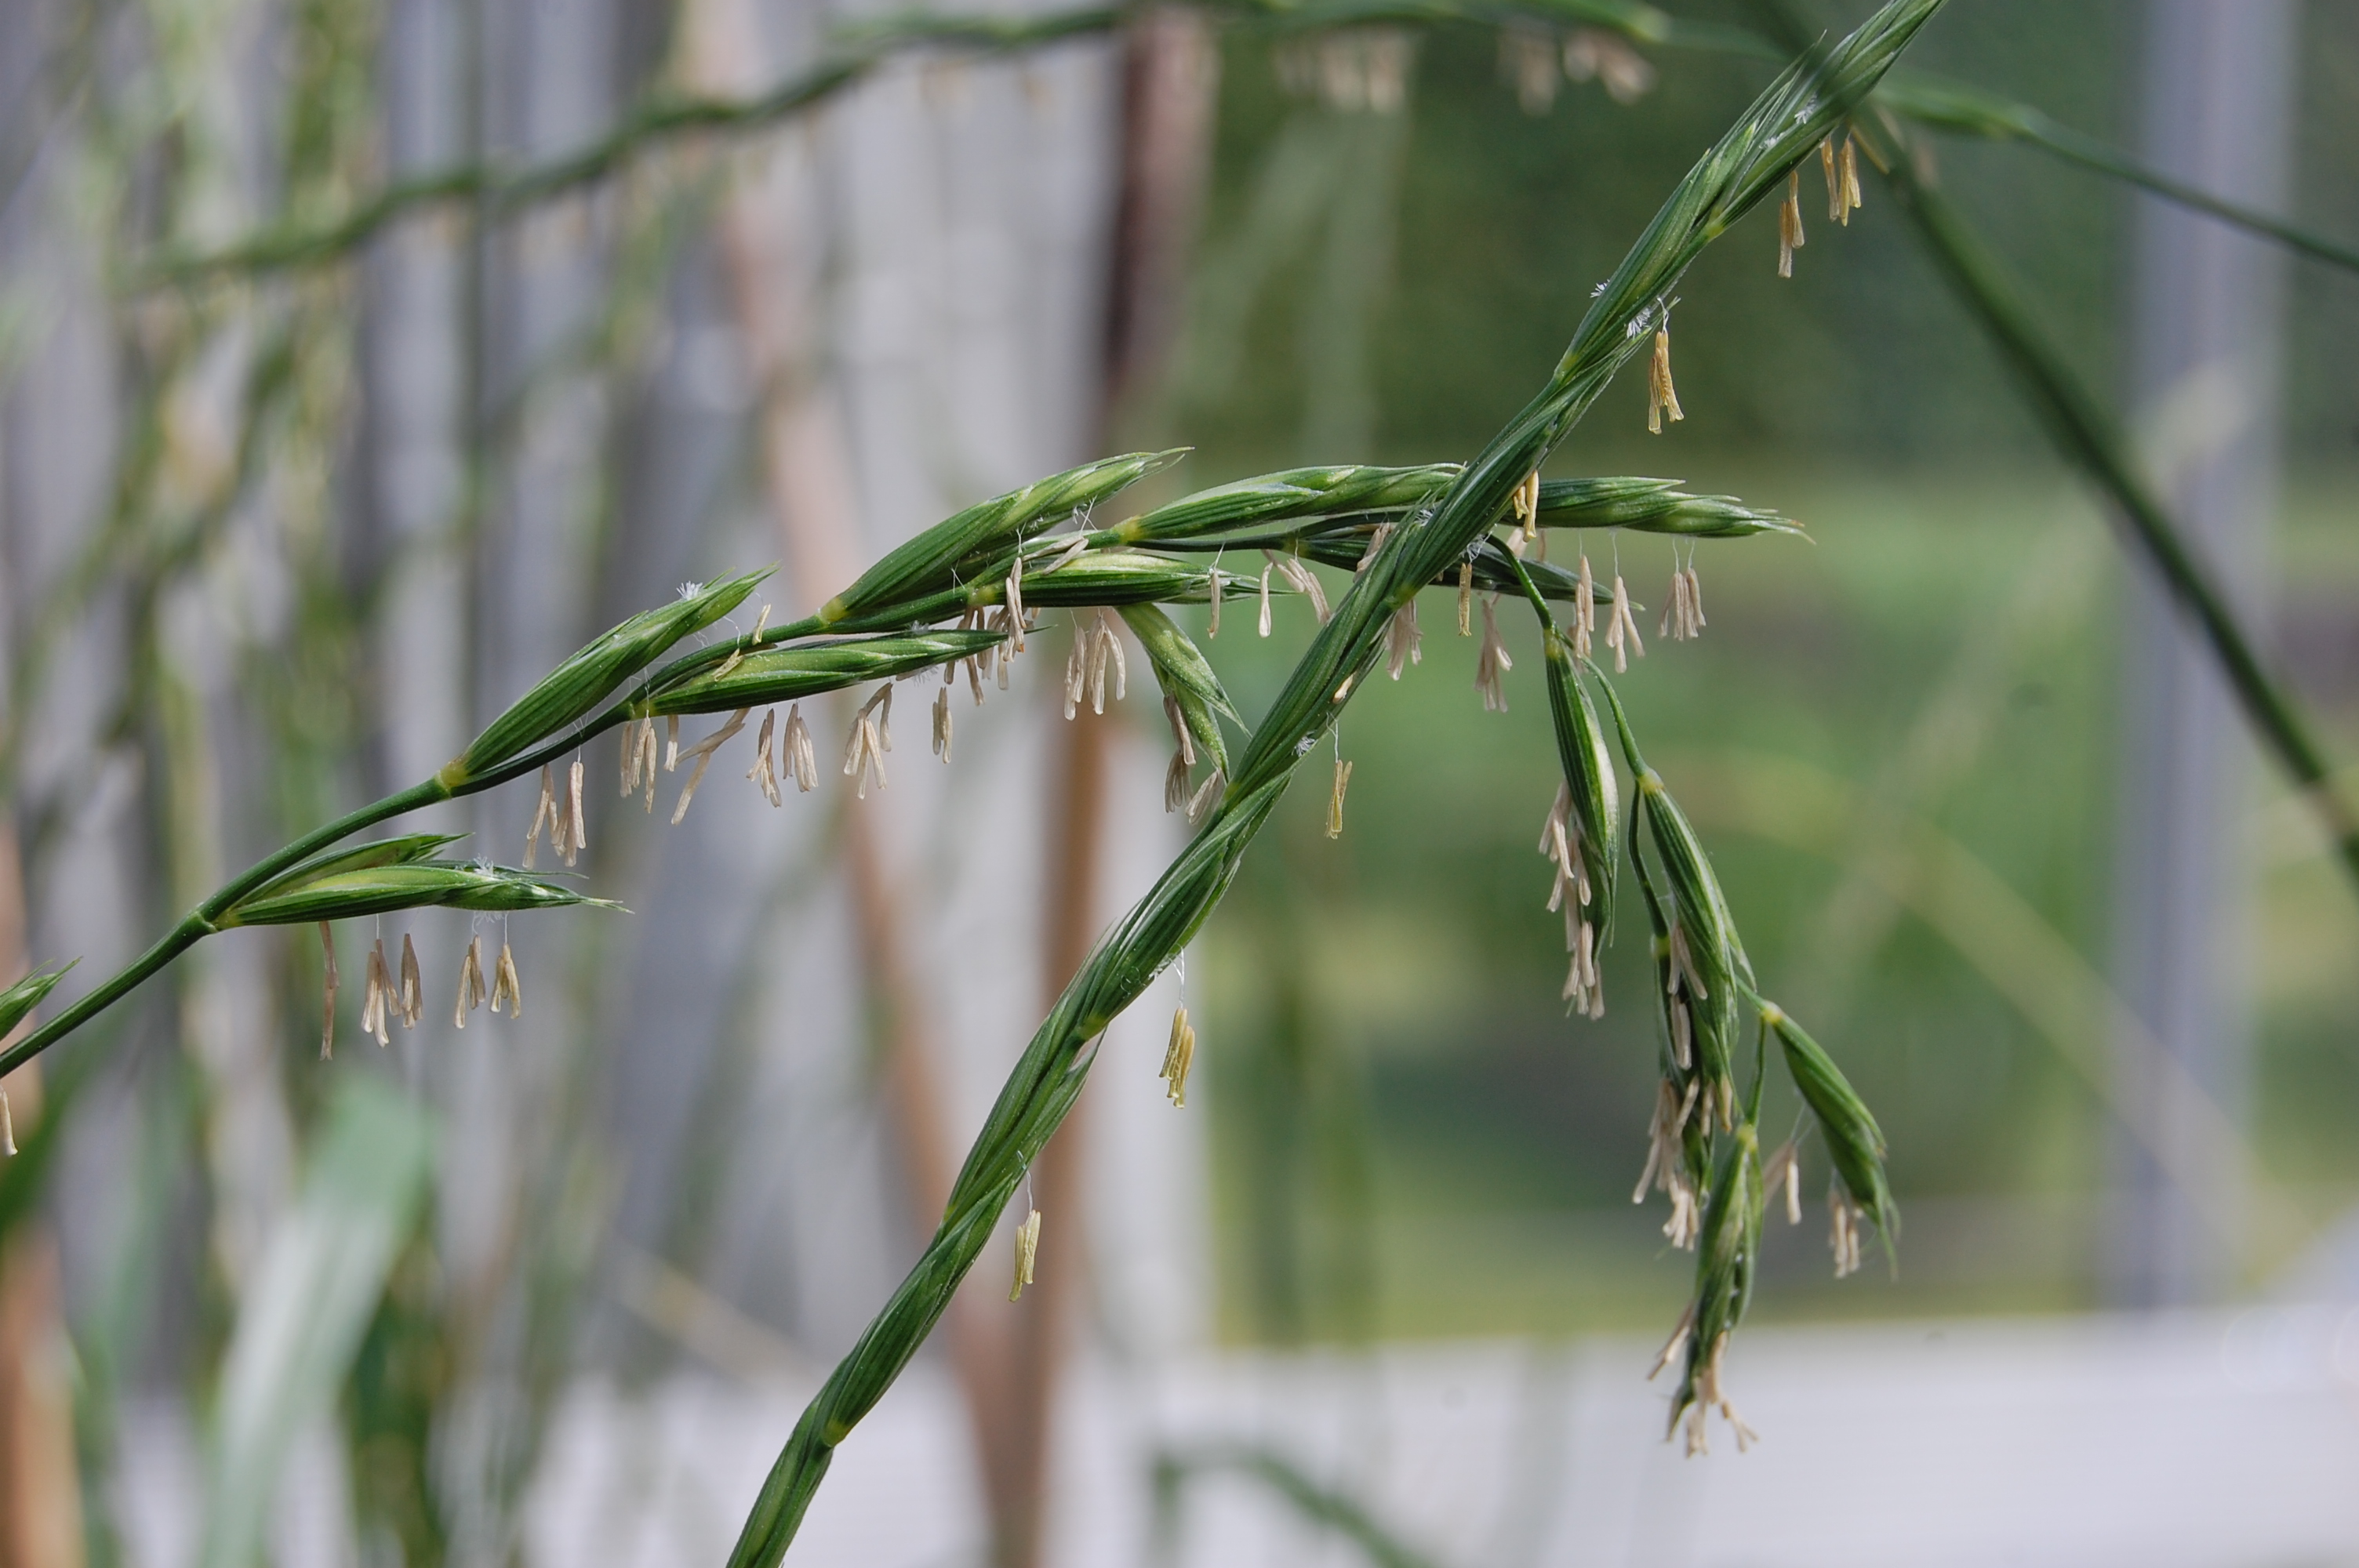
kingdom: Plantae
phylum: Tracheophyta
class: Liliopsida
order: Poales
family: Poaceae
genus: Elymus
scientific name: Elymus abolinii
